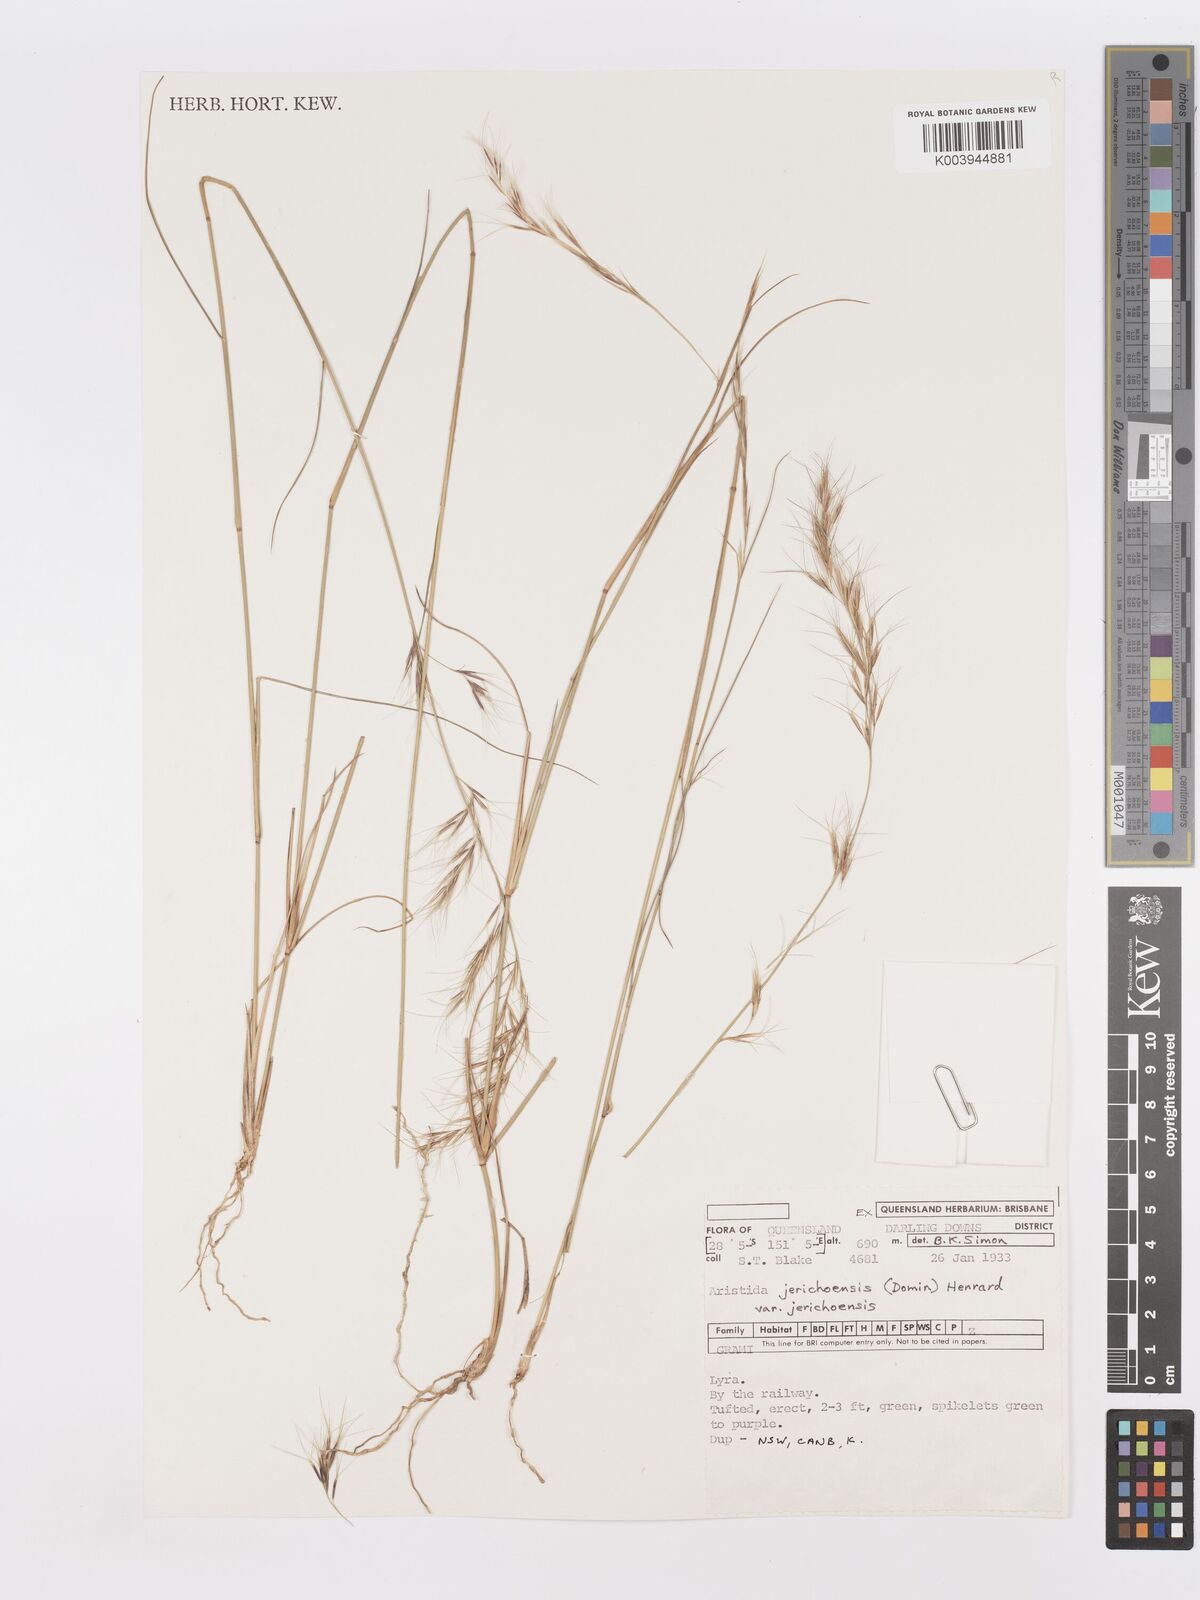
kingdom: Plantae
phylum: Tracheophyta
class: Liliopsida
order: Poales
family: Poaceae
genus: Aristida
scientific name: Aristida jerichoensis
